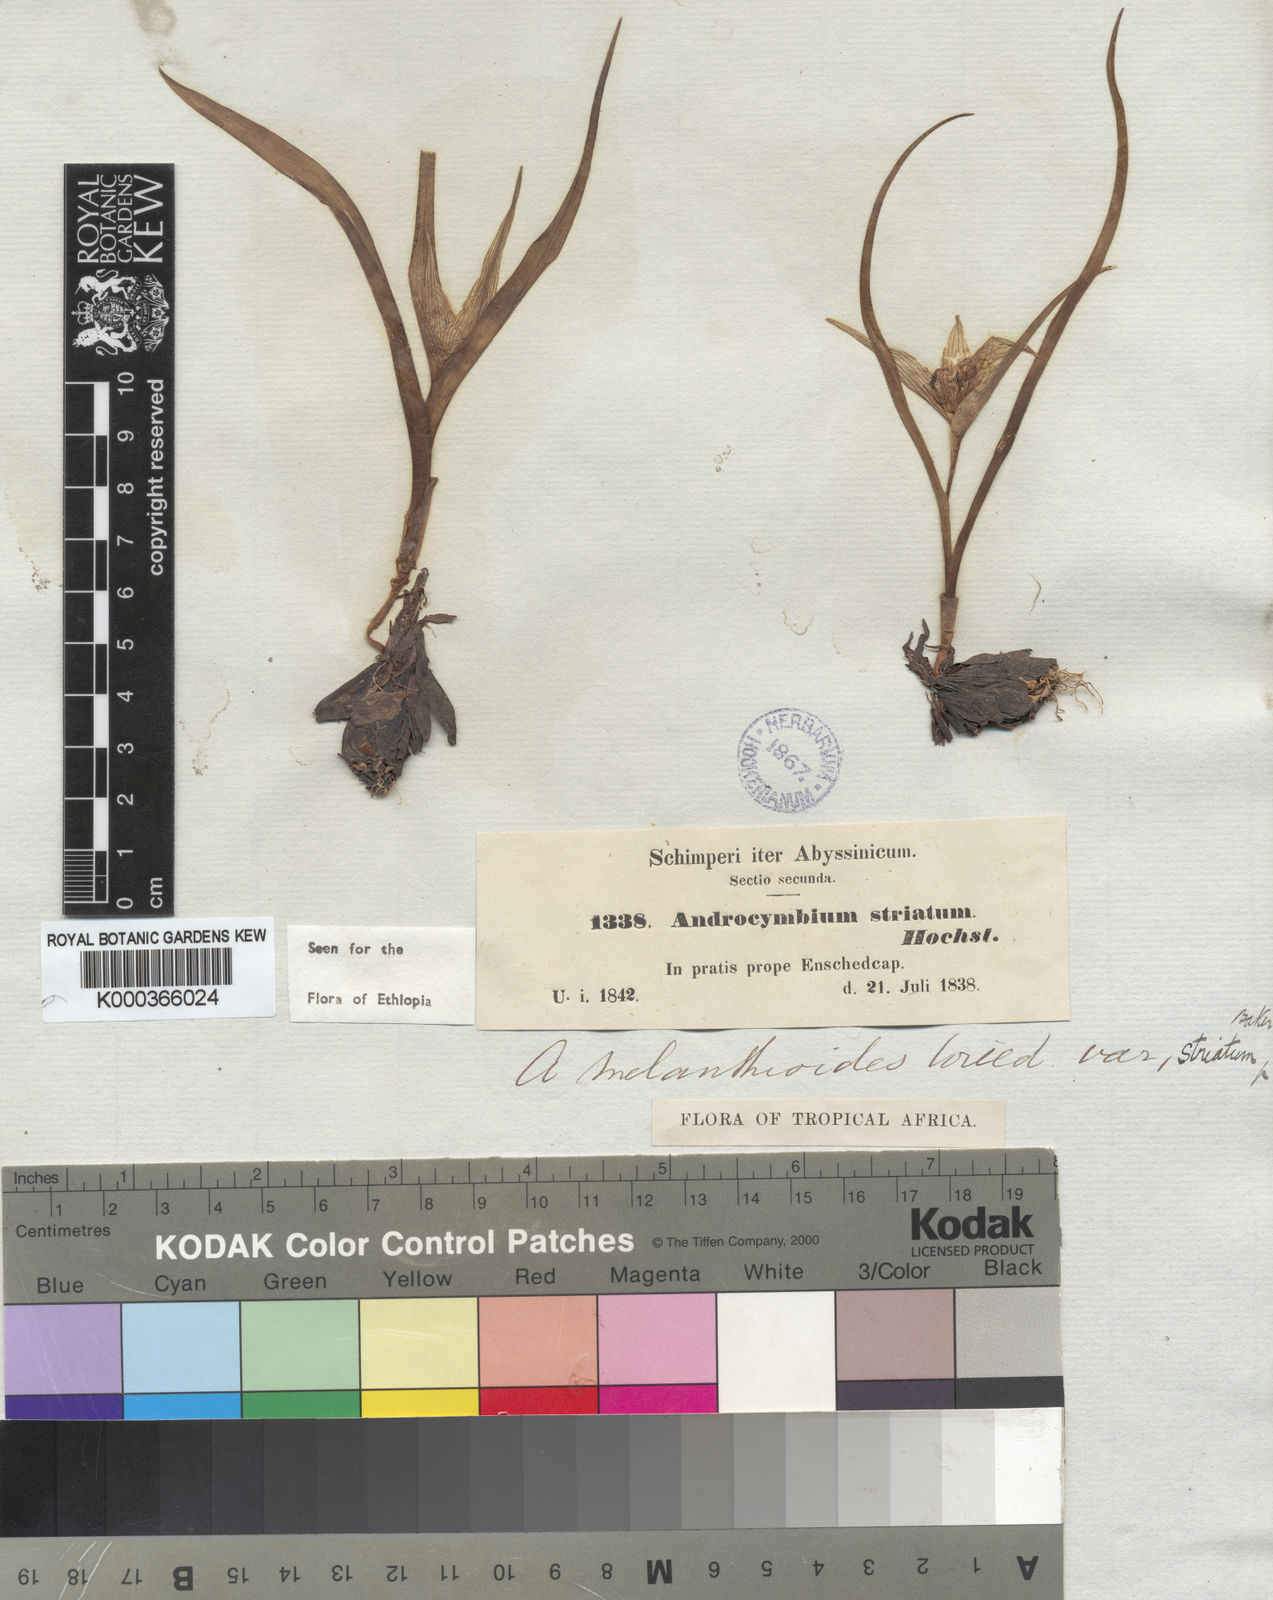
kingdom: Plantae
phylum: Tracheophyta
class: Liliopsida
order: Liliales
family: Colchicaceae
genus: Colchicum
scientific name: Colchicum melanthioides
